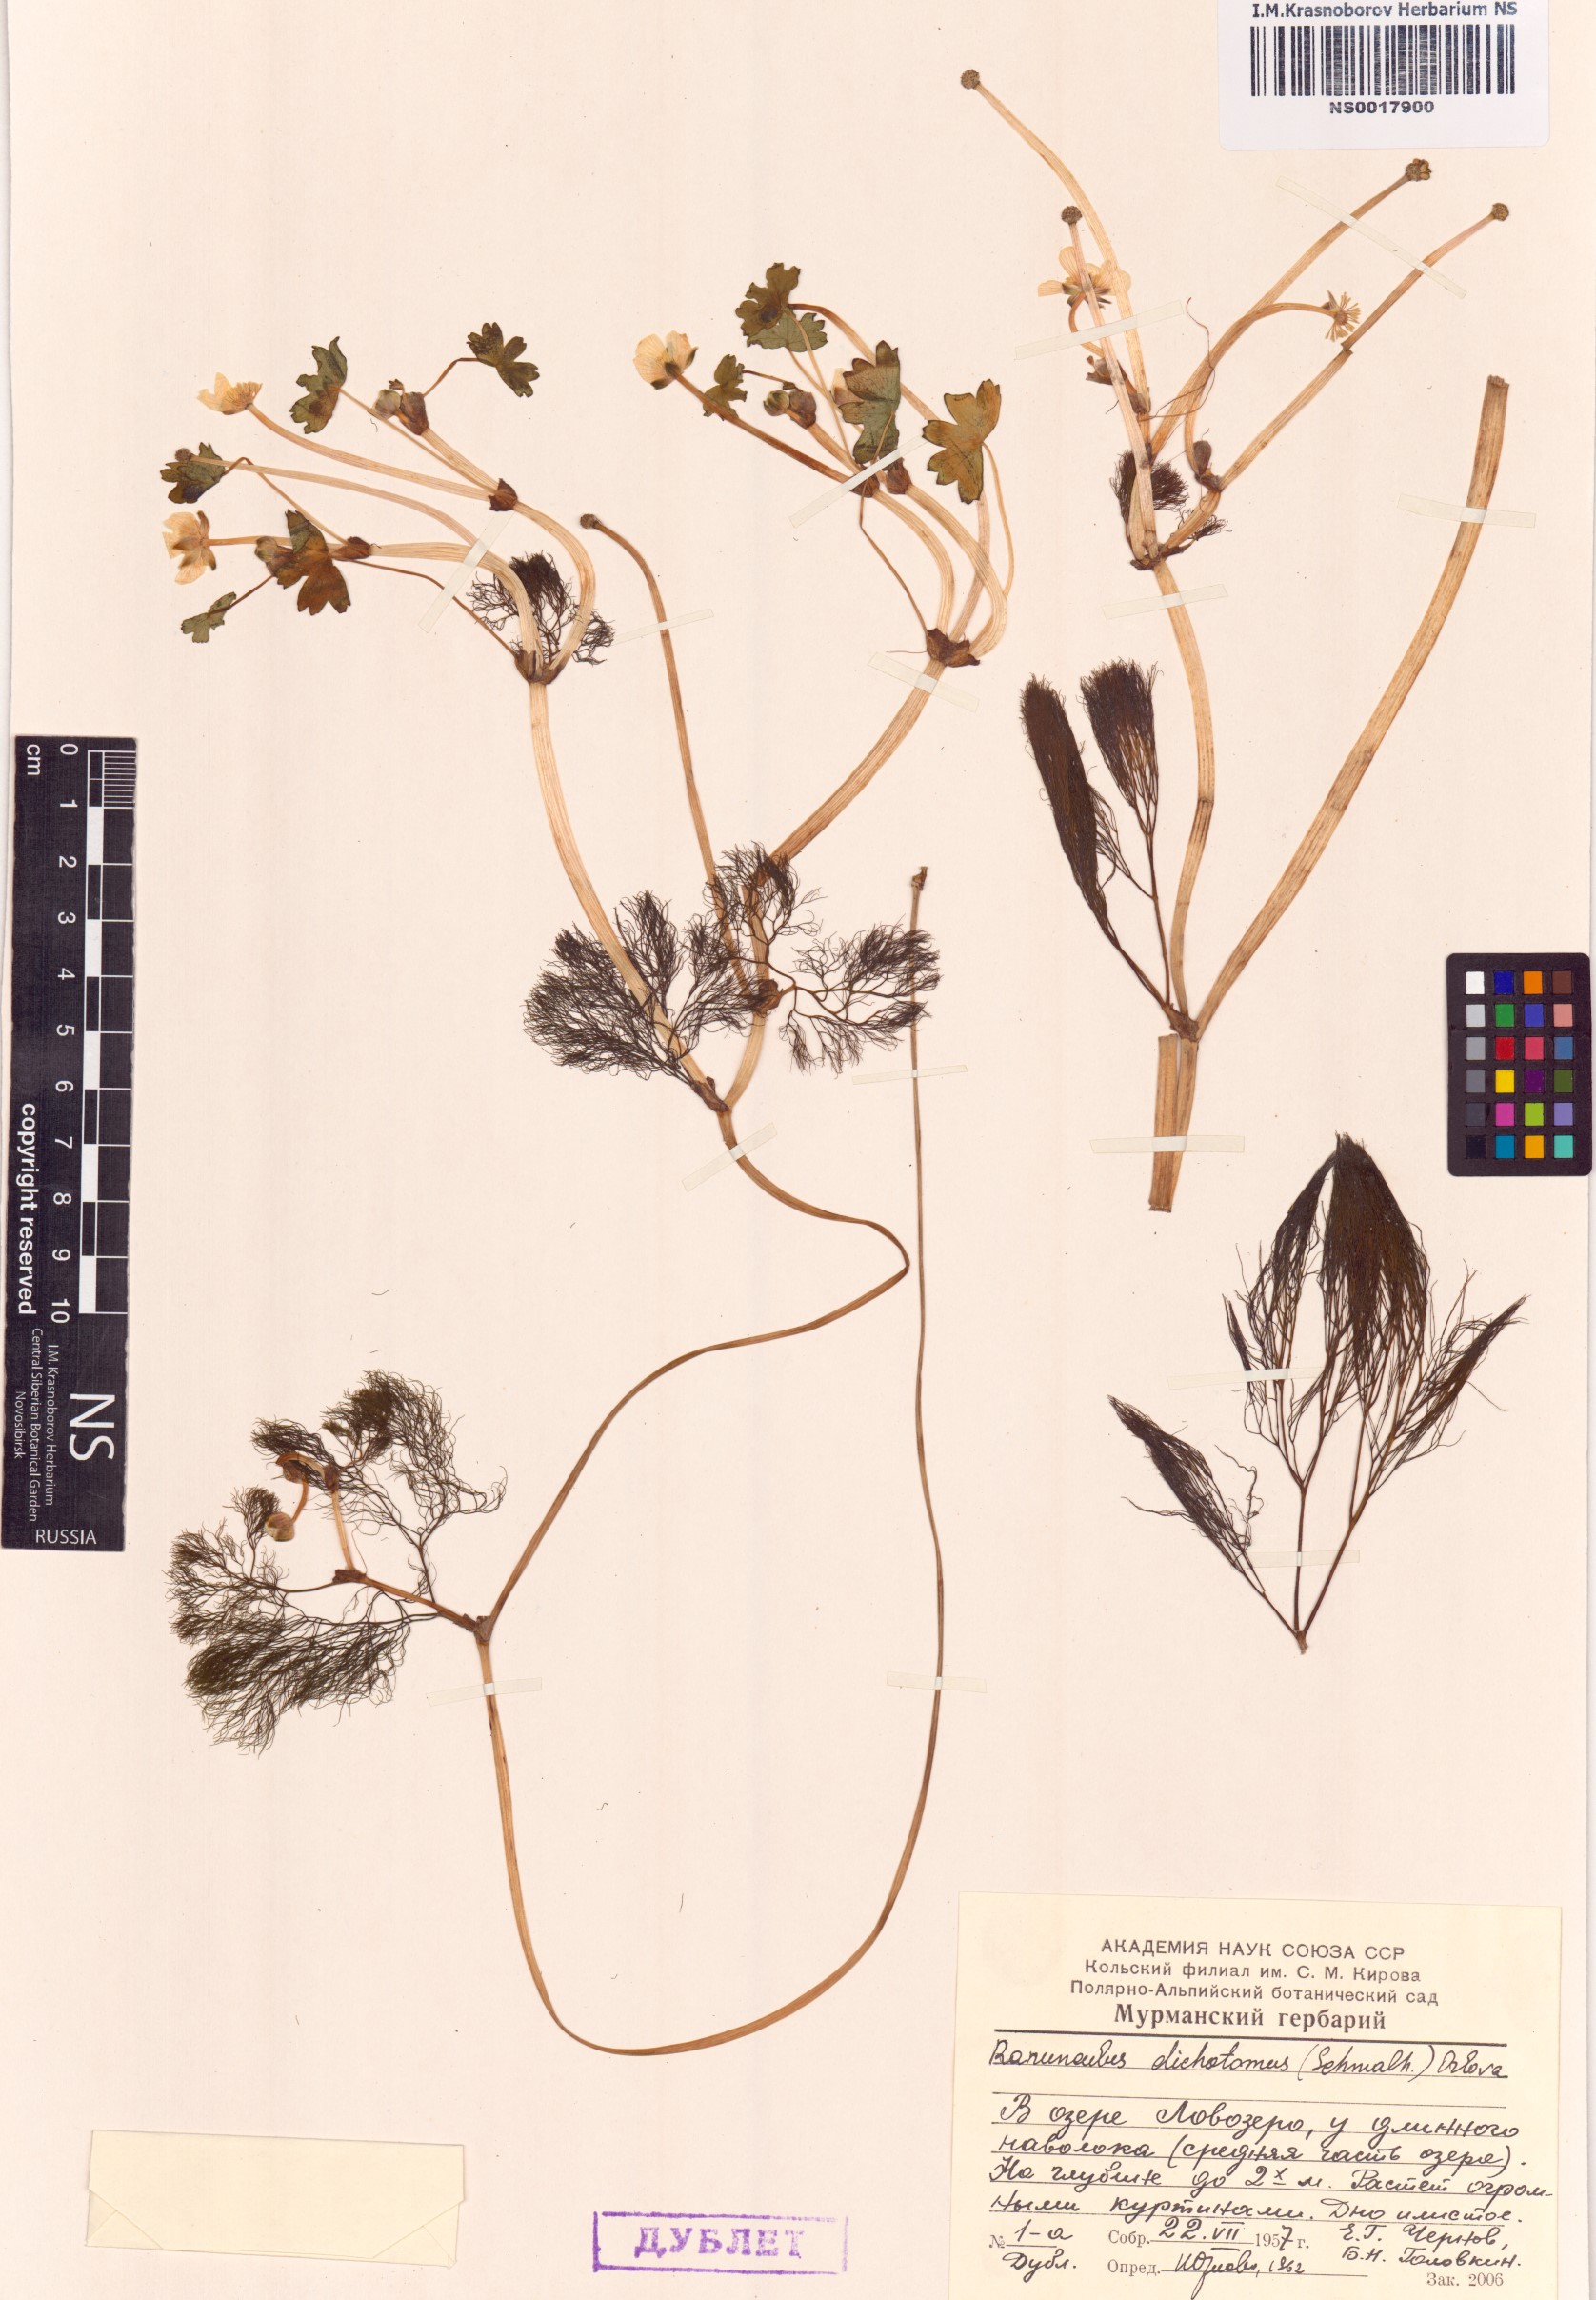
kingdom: Plantae
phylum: Tracheophyta
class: Magnoliopsida
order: Ranunculales
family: Ranunculaceae
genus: Ranunculus
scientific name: Ranunculus schmalhausenii
